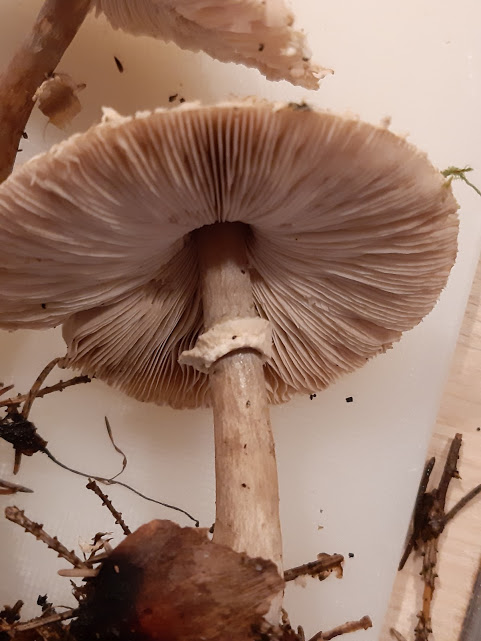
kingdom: Fungi
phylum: Basidiomycota
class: Agaricomycetes
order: Agaricales
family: Agaricaceae
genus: Leucoagaricus
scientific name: Leucoagaricus nympharum
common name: gran-silkehat
